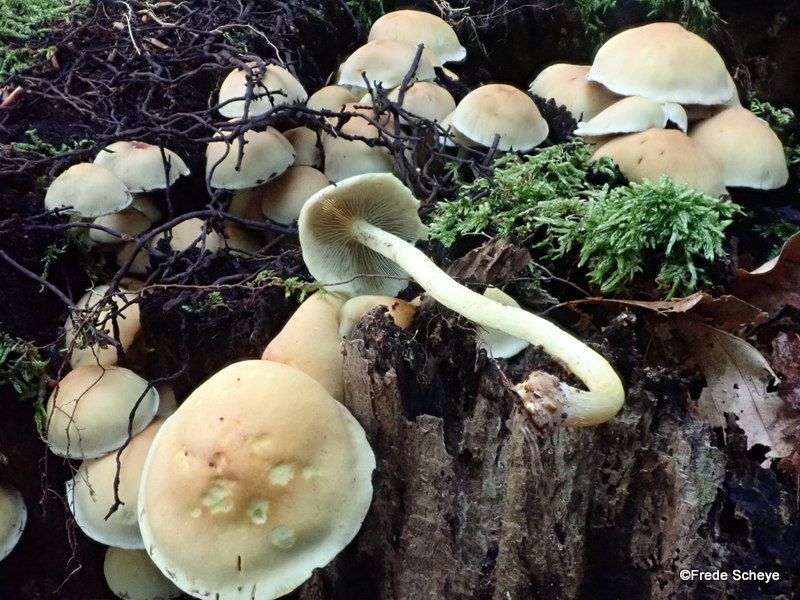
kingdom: Fungi
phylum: Basidiomycota
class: Agaricomycetes
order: Agaricales
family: Strophariaceae
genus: Hypholoma
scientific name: Hypholoma fasciculare
